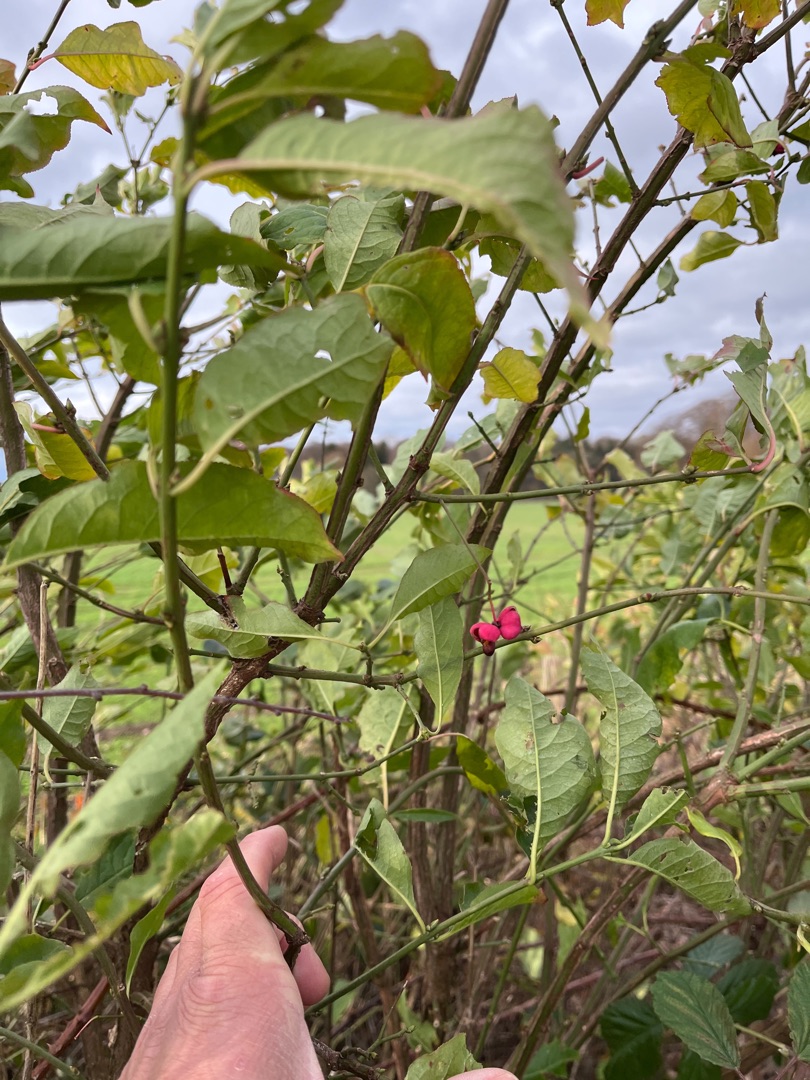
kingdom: Plantae
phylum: Tracheophyta
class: Magnoliopsida
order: Celastrales
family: Celastraceae
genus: Euonymus
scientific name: Euonymus europaeus
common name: Benved
